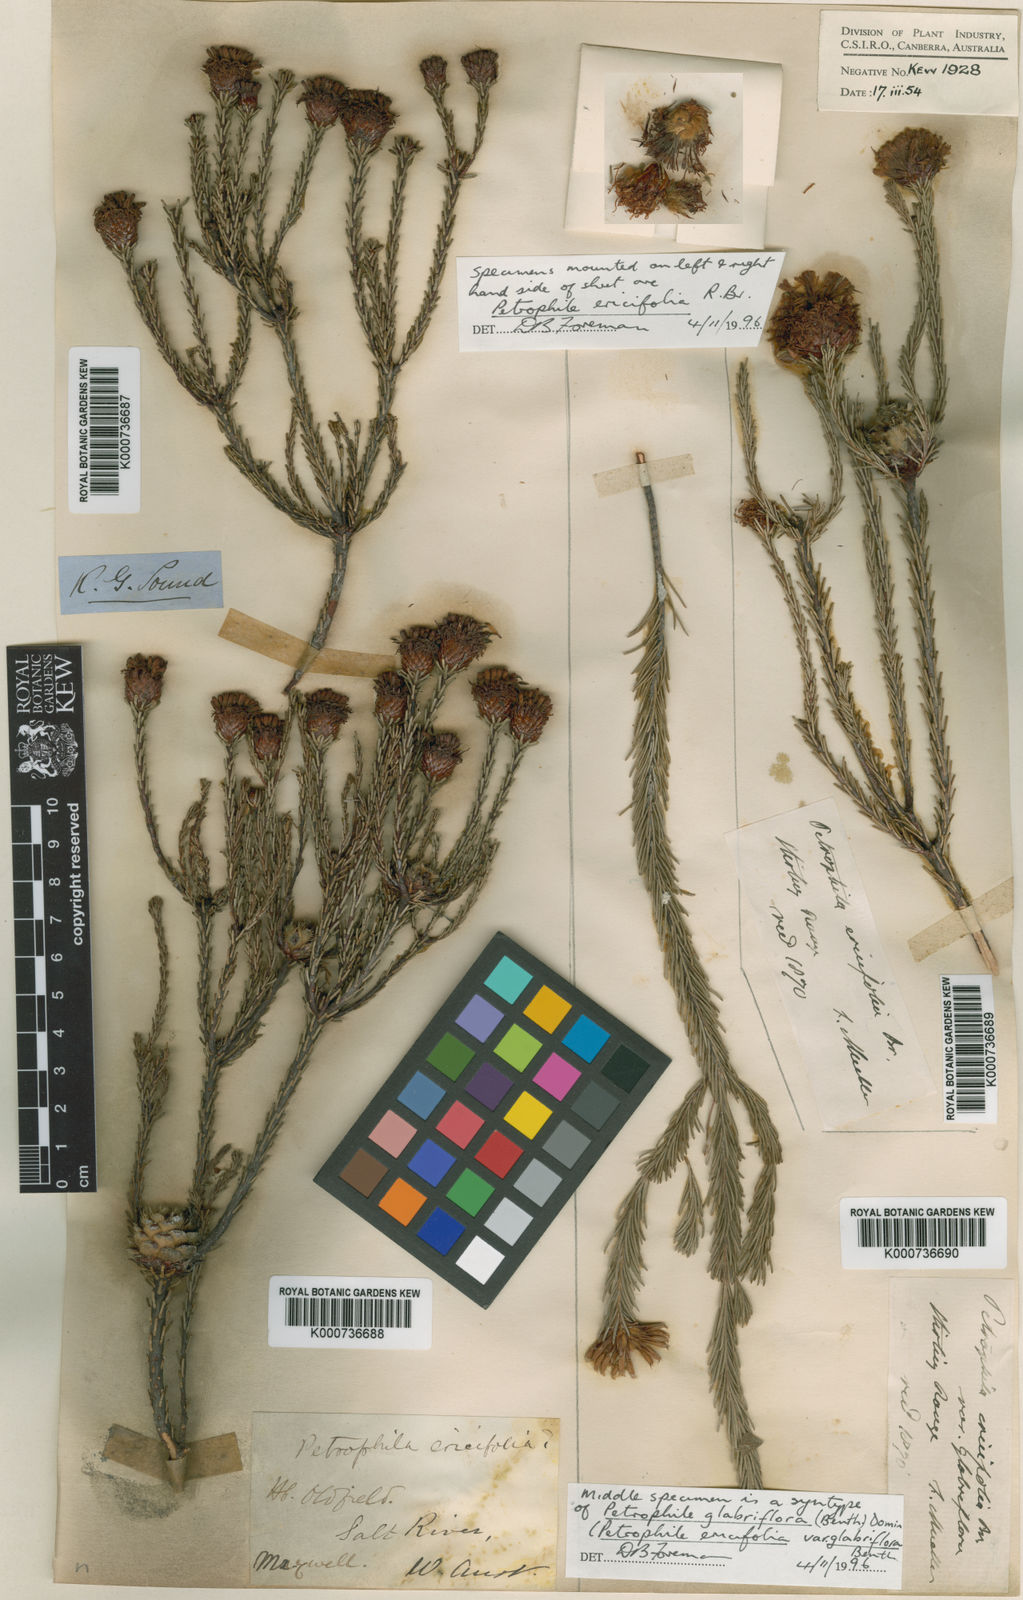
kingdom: Plantae
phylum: Tracheophyta
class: Magnoliopsida
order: Proteales
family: Proteaceae
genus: Petrophile
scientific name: Petrophile phylicoides
